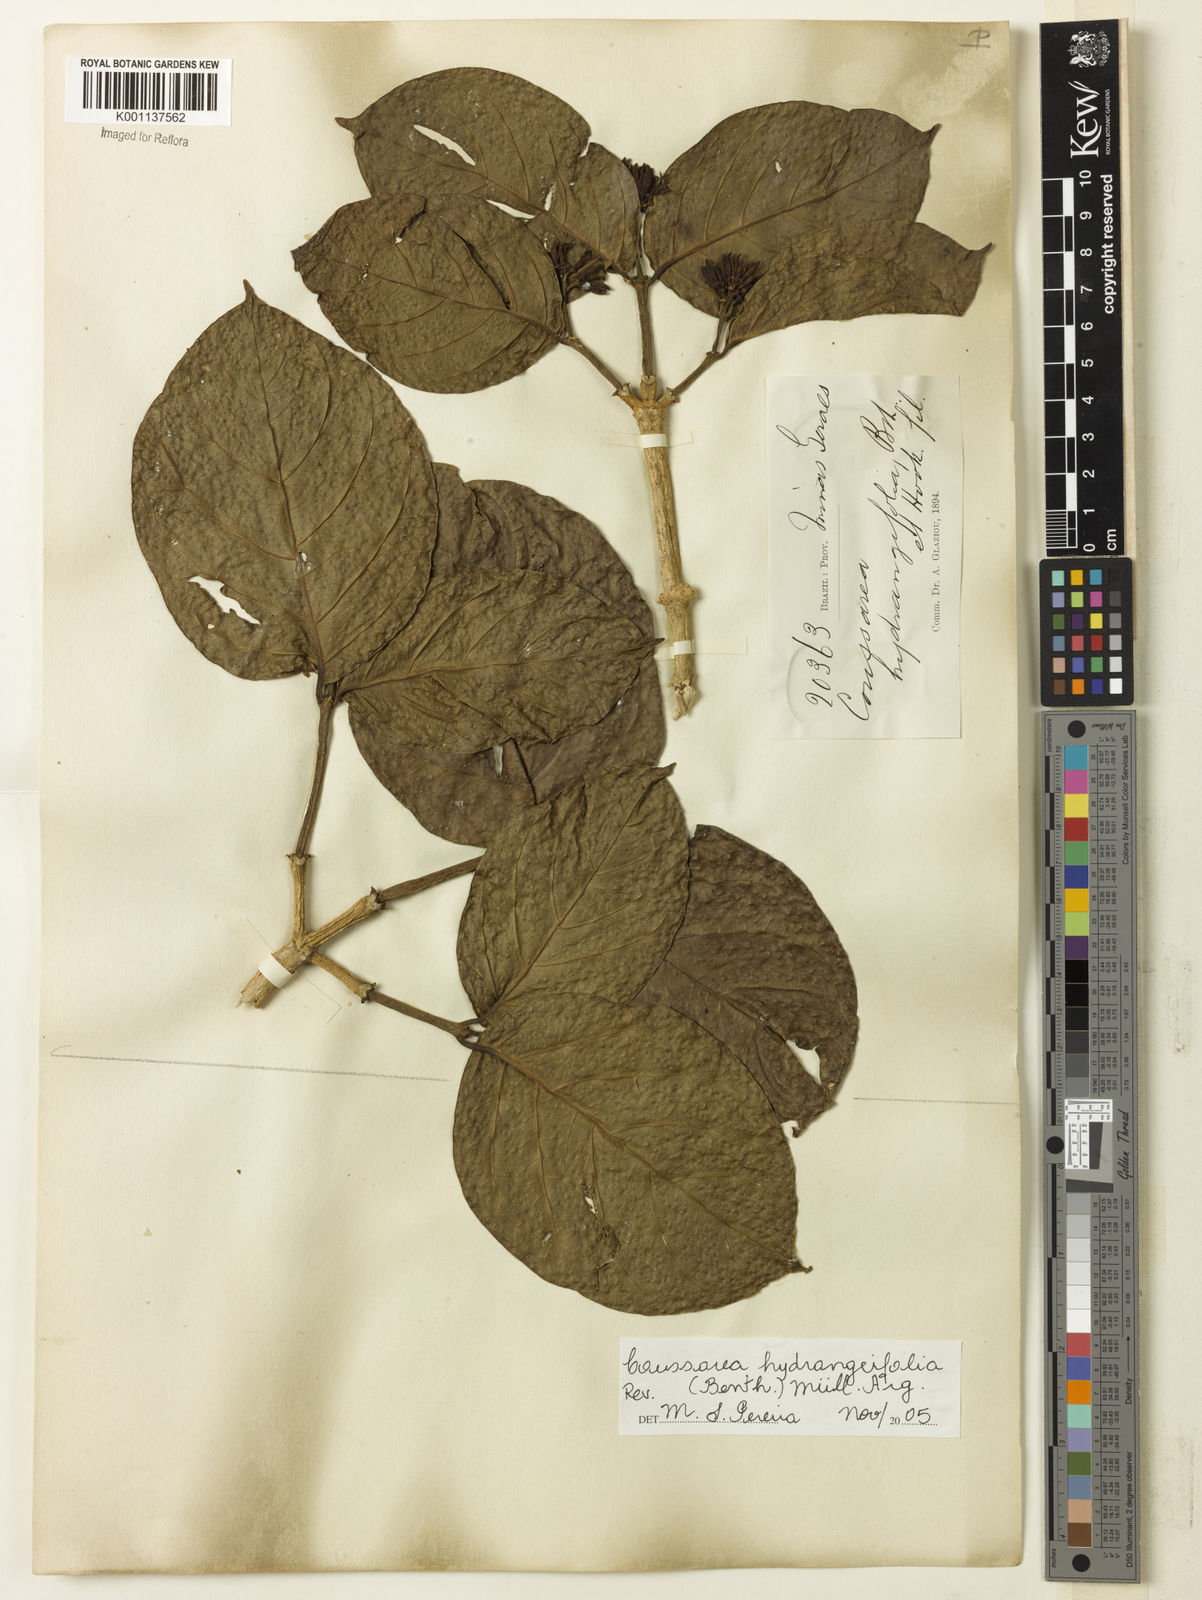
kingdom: Plantae
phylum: Tracheophyta
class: Magnoliopsida
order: Gentianales
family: Rubiaceae
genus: Coussarea
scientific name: Coussarea
